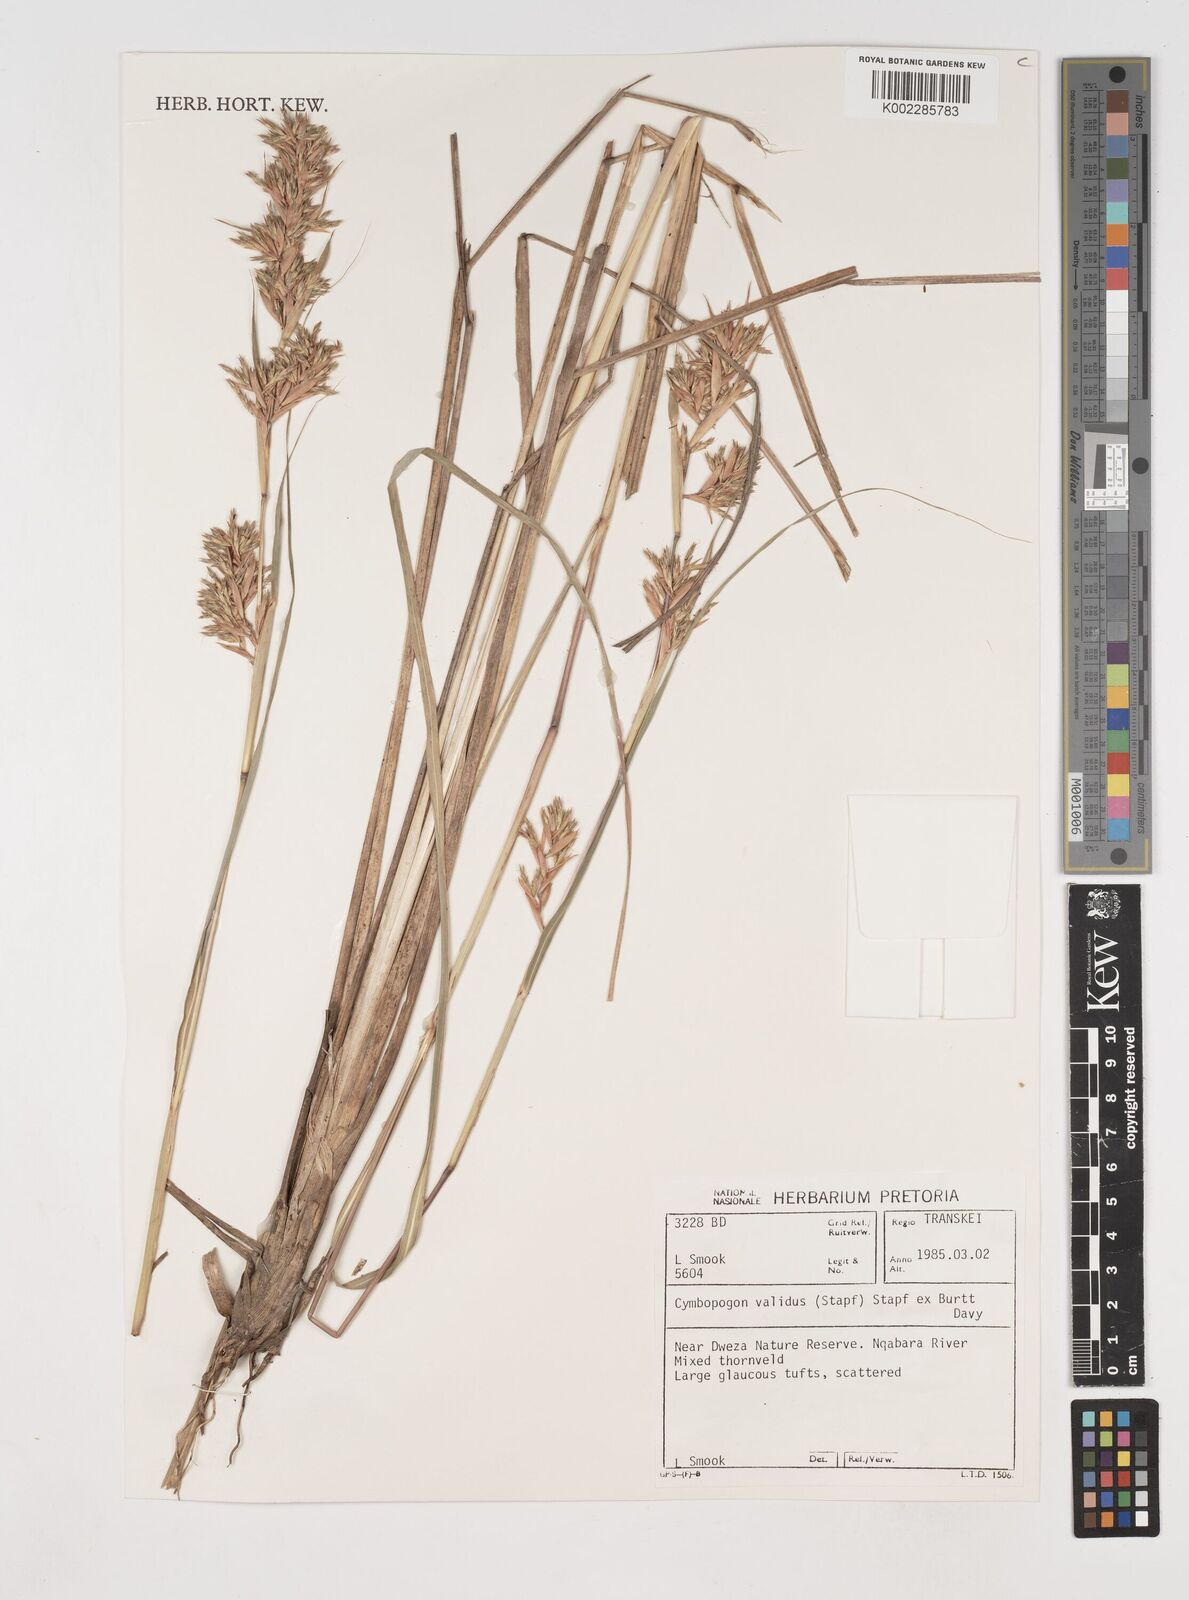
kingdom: Plantae
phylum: Tracheophyta
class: Liliopsida
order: Poales
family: Poaceae
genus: Cymbopogon
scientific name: Cymbopogon nardus
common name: Giant turpentine grass
